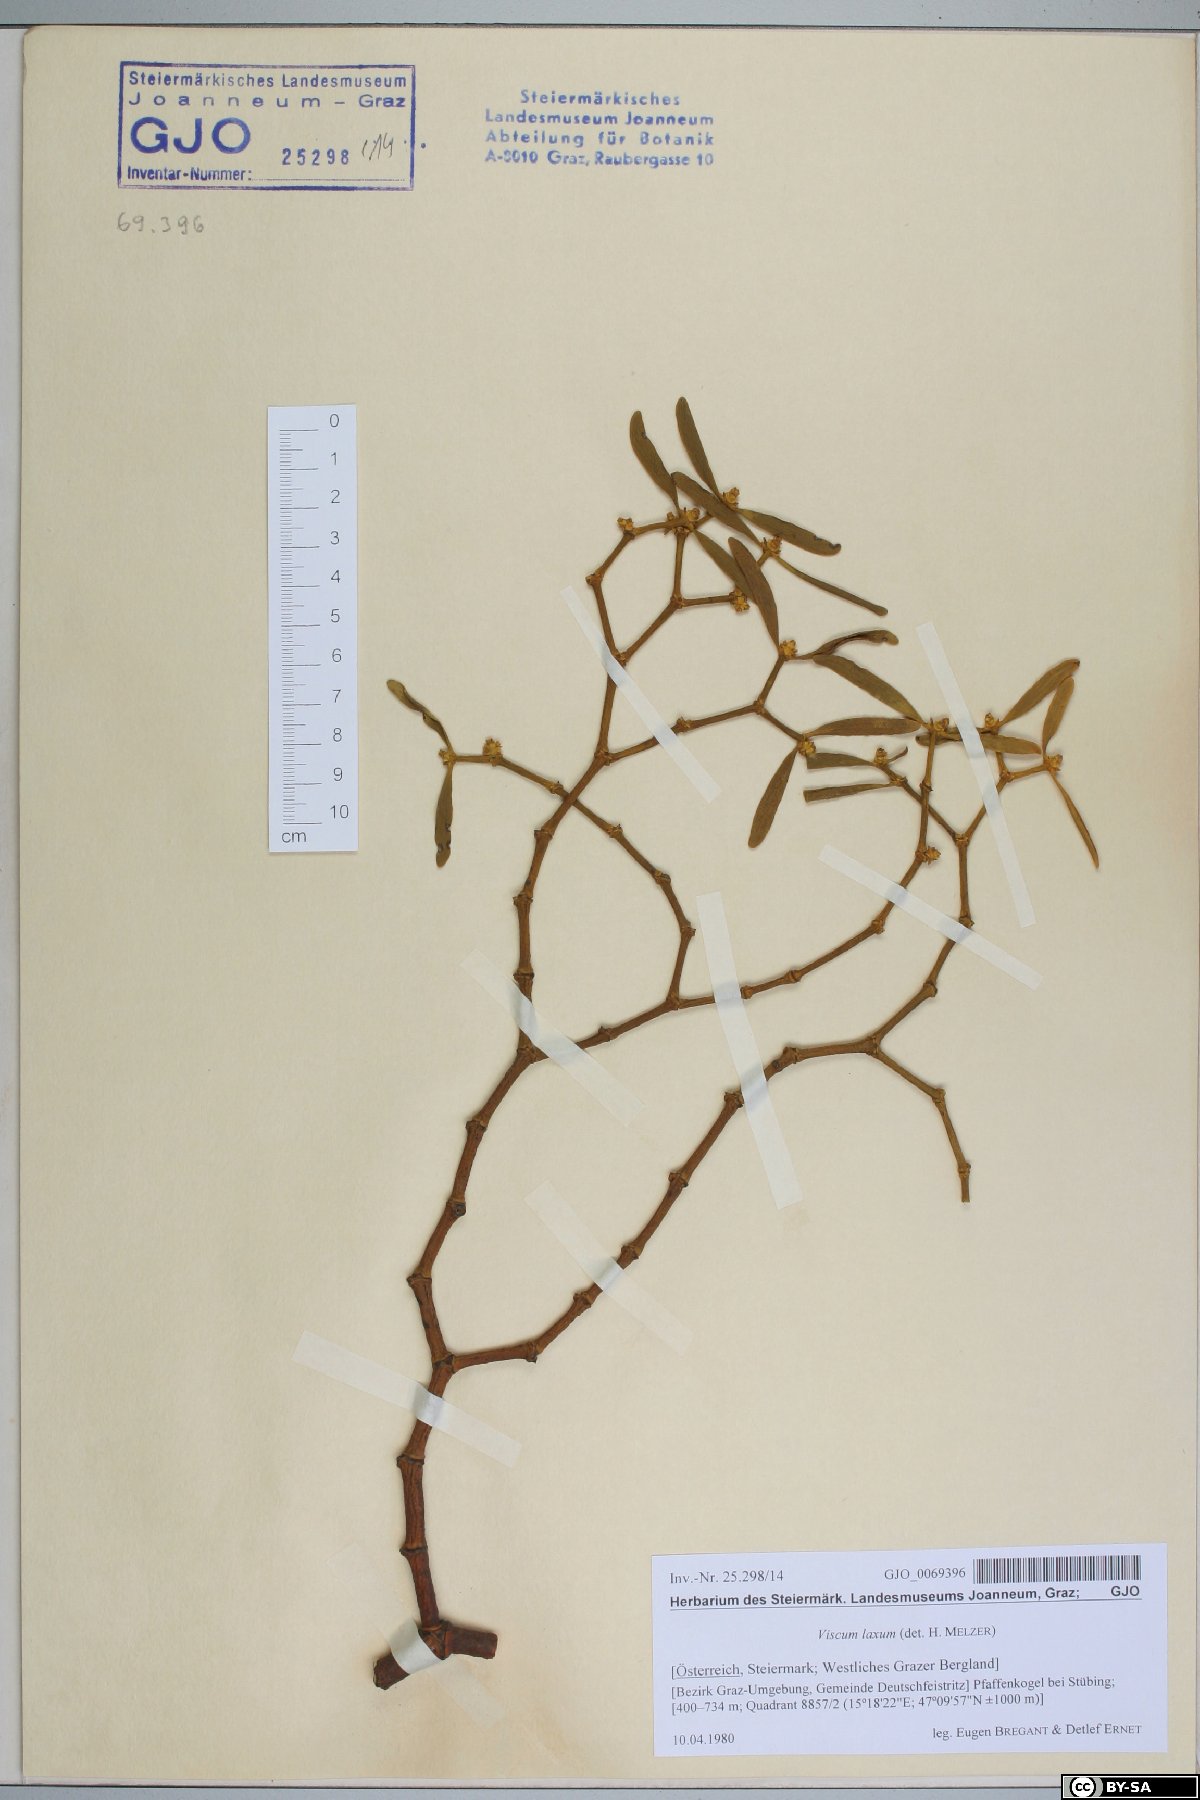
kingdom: Plantae
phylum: Tracheophyta
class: Magnoliopsida
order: Santalales
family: Viscaceae
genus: Viscum
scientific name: Viscum laxum
